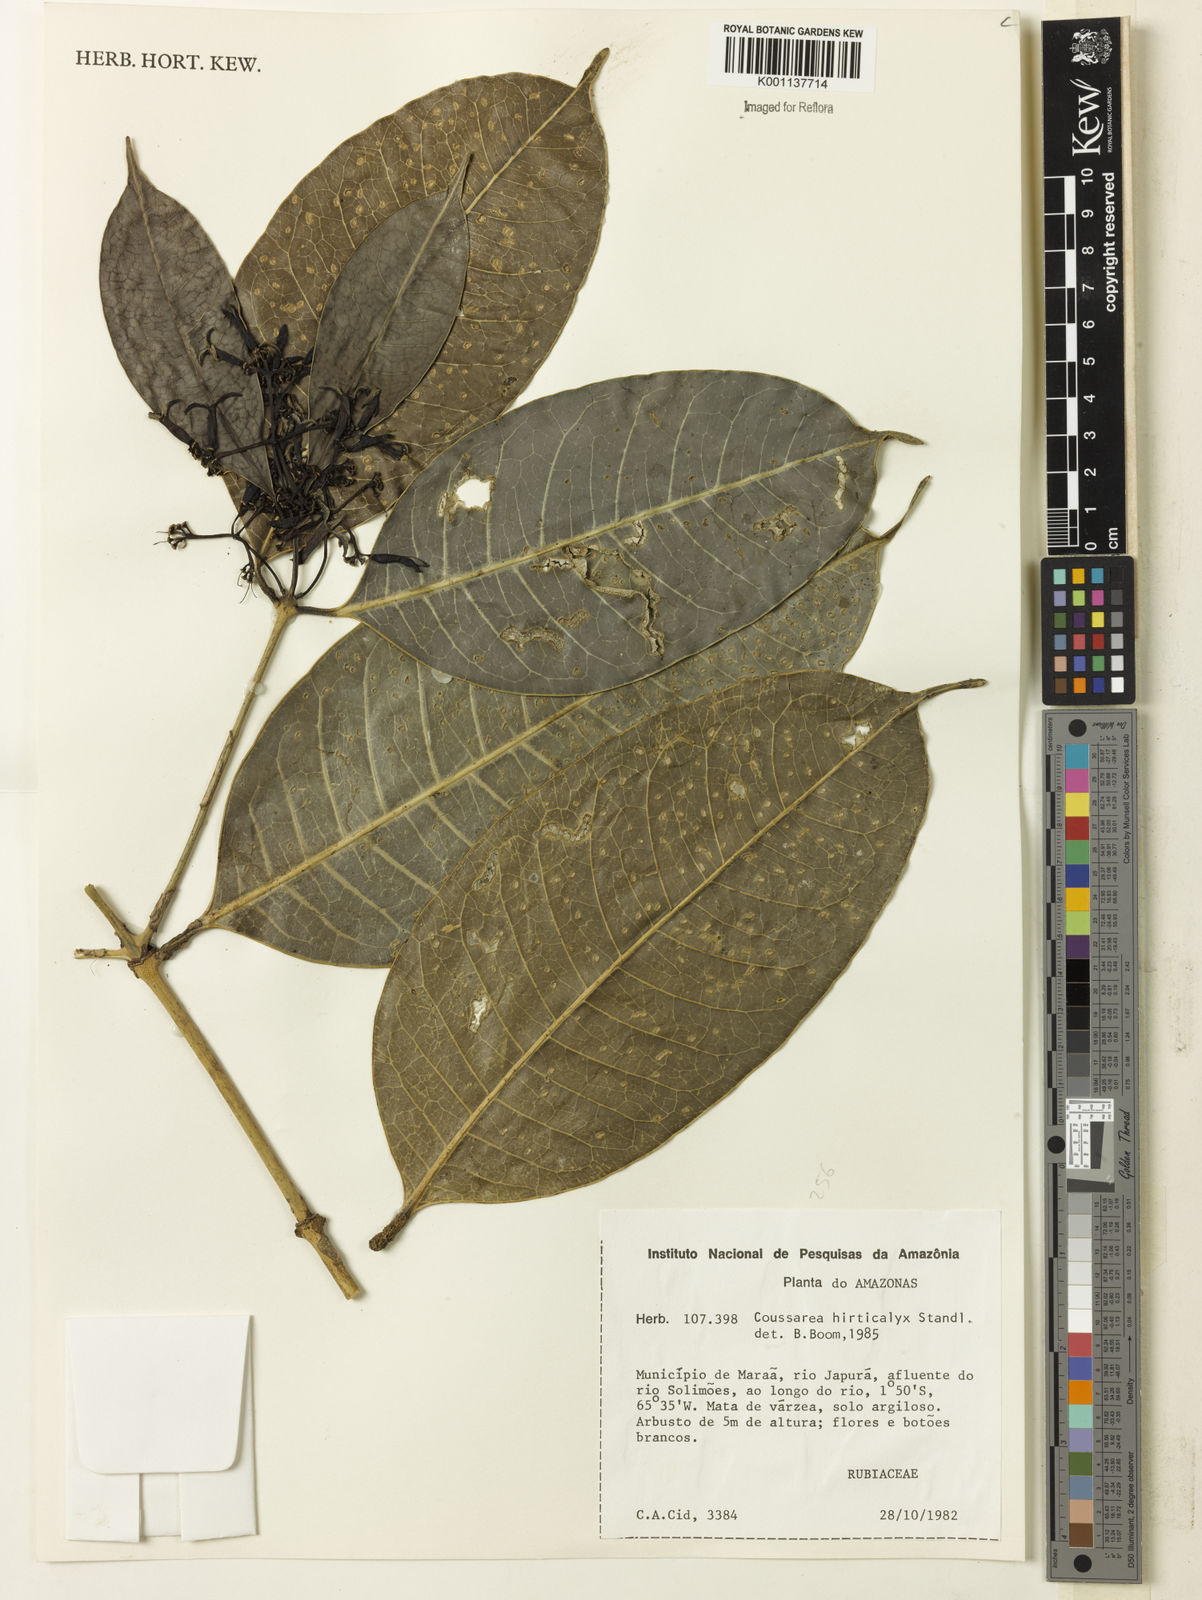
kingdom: Plantae
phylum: Tracheophyta
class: Magnoliopsida
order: Gentianales
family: Rubiaceae
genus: Coussarea
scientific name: Coussarea hirticalyx
